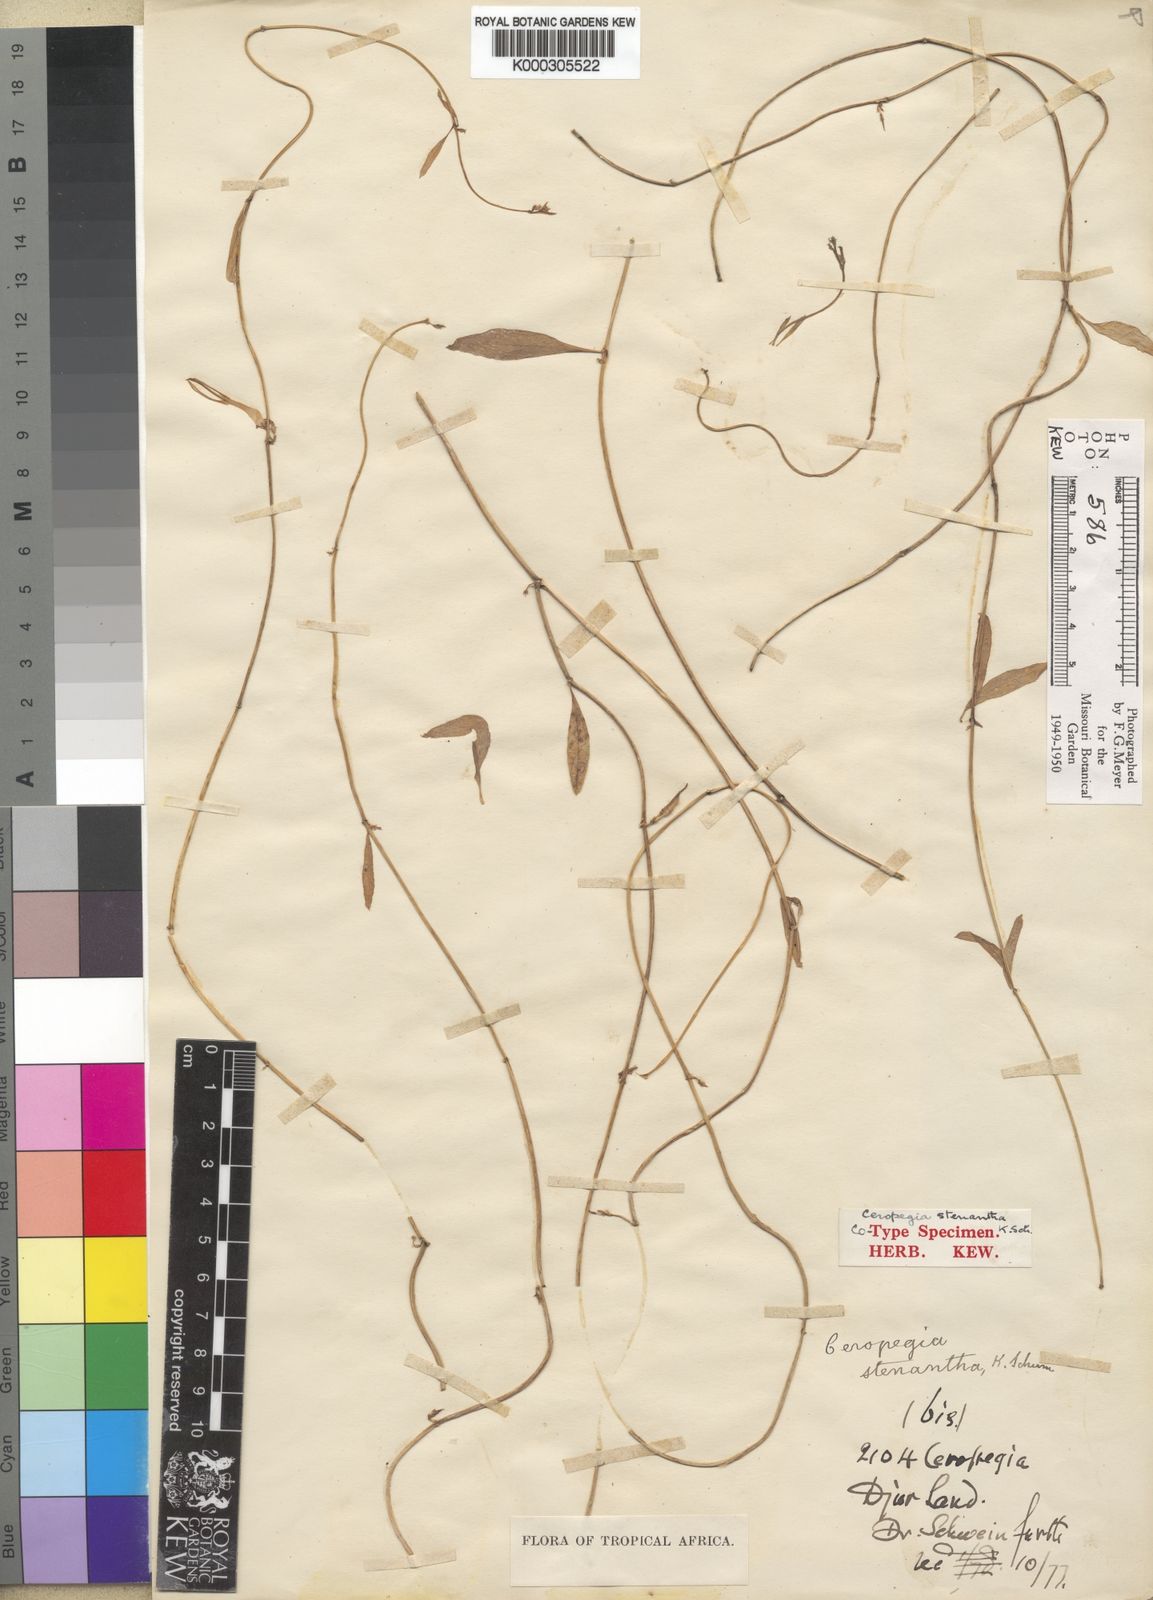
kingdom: Plantae
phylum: Tracheophyta
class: Magnoliopsida
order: Gentianales
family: Apocynaceae
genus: Ceropegia
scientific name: Ceropegia stenantha
